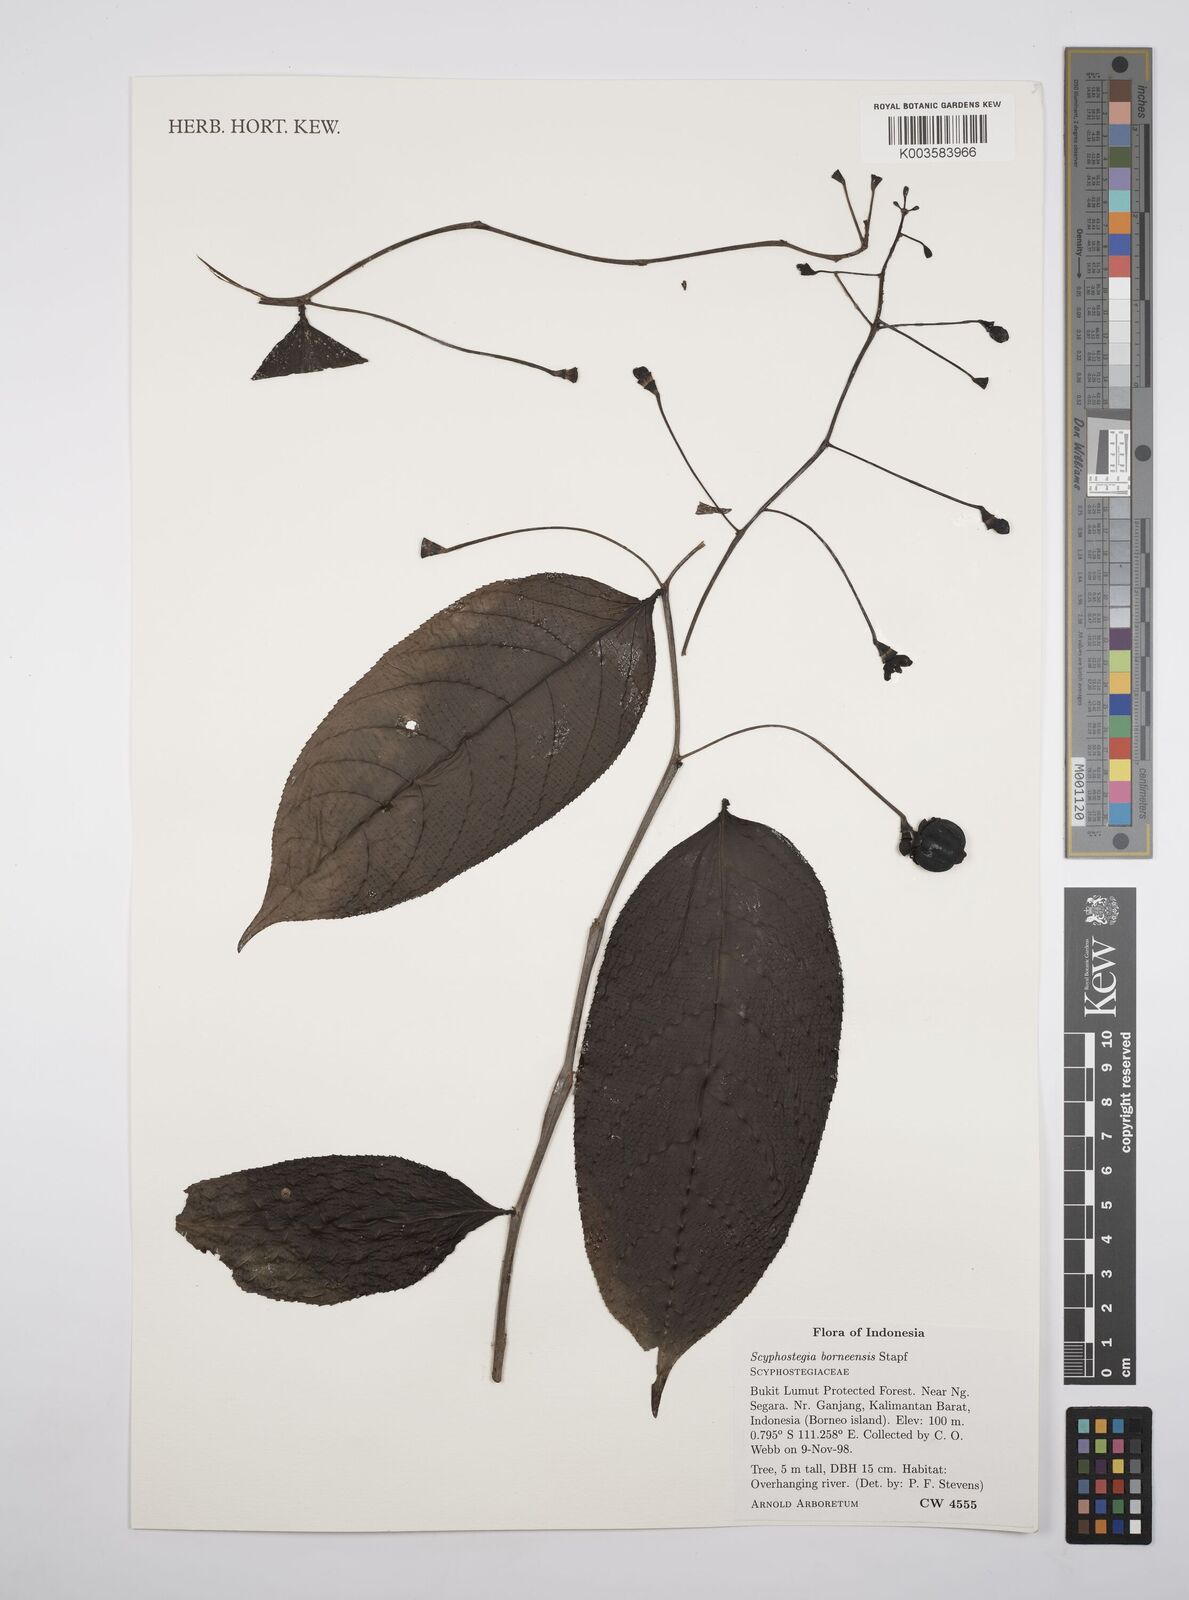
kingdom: Plantae
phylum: Tracheophyta
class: Magnoliopsida
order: Malpighiales
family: Salicaceae
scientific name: Salicaceae
